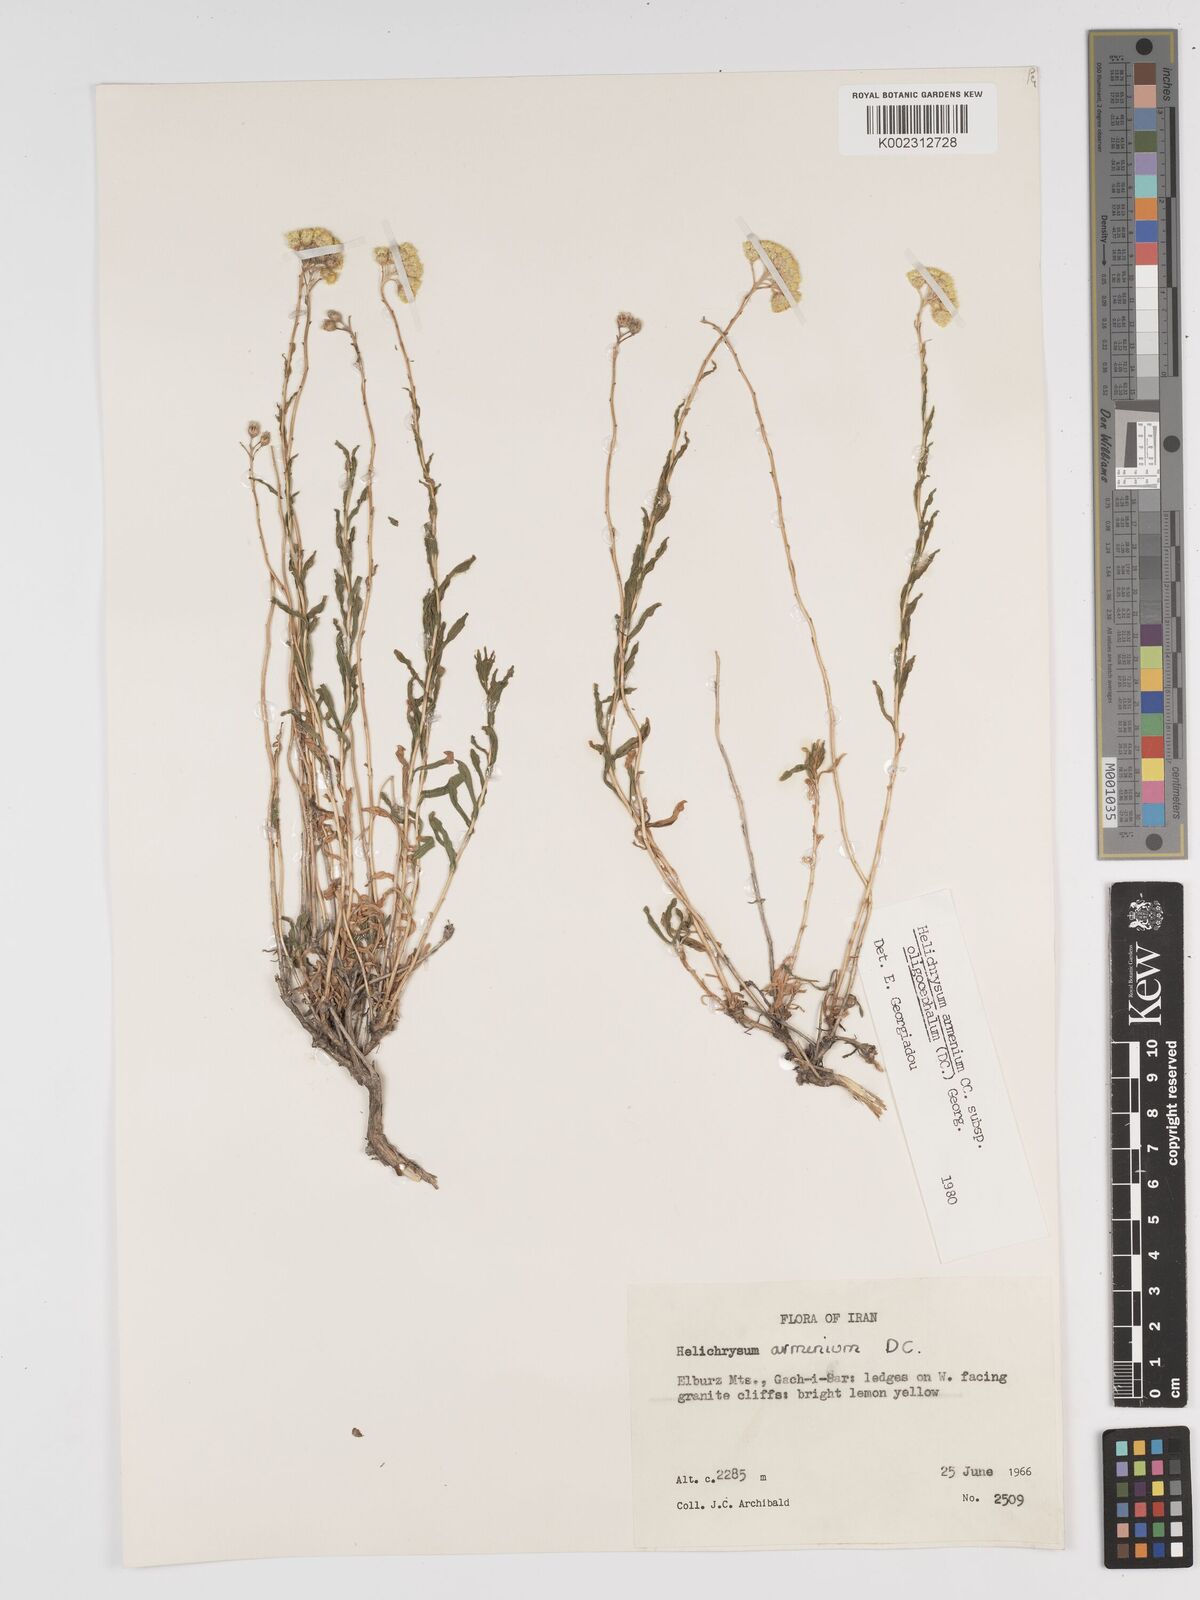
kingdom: Plantae
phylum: Tracheophyta
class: Magnoliopsida
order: Asterales
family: Asteraceae
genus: Helichrysum
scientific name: Helichrysum armenium
